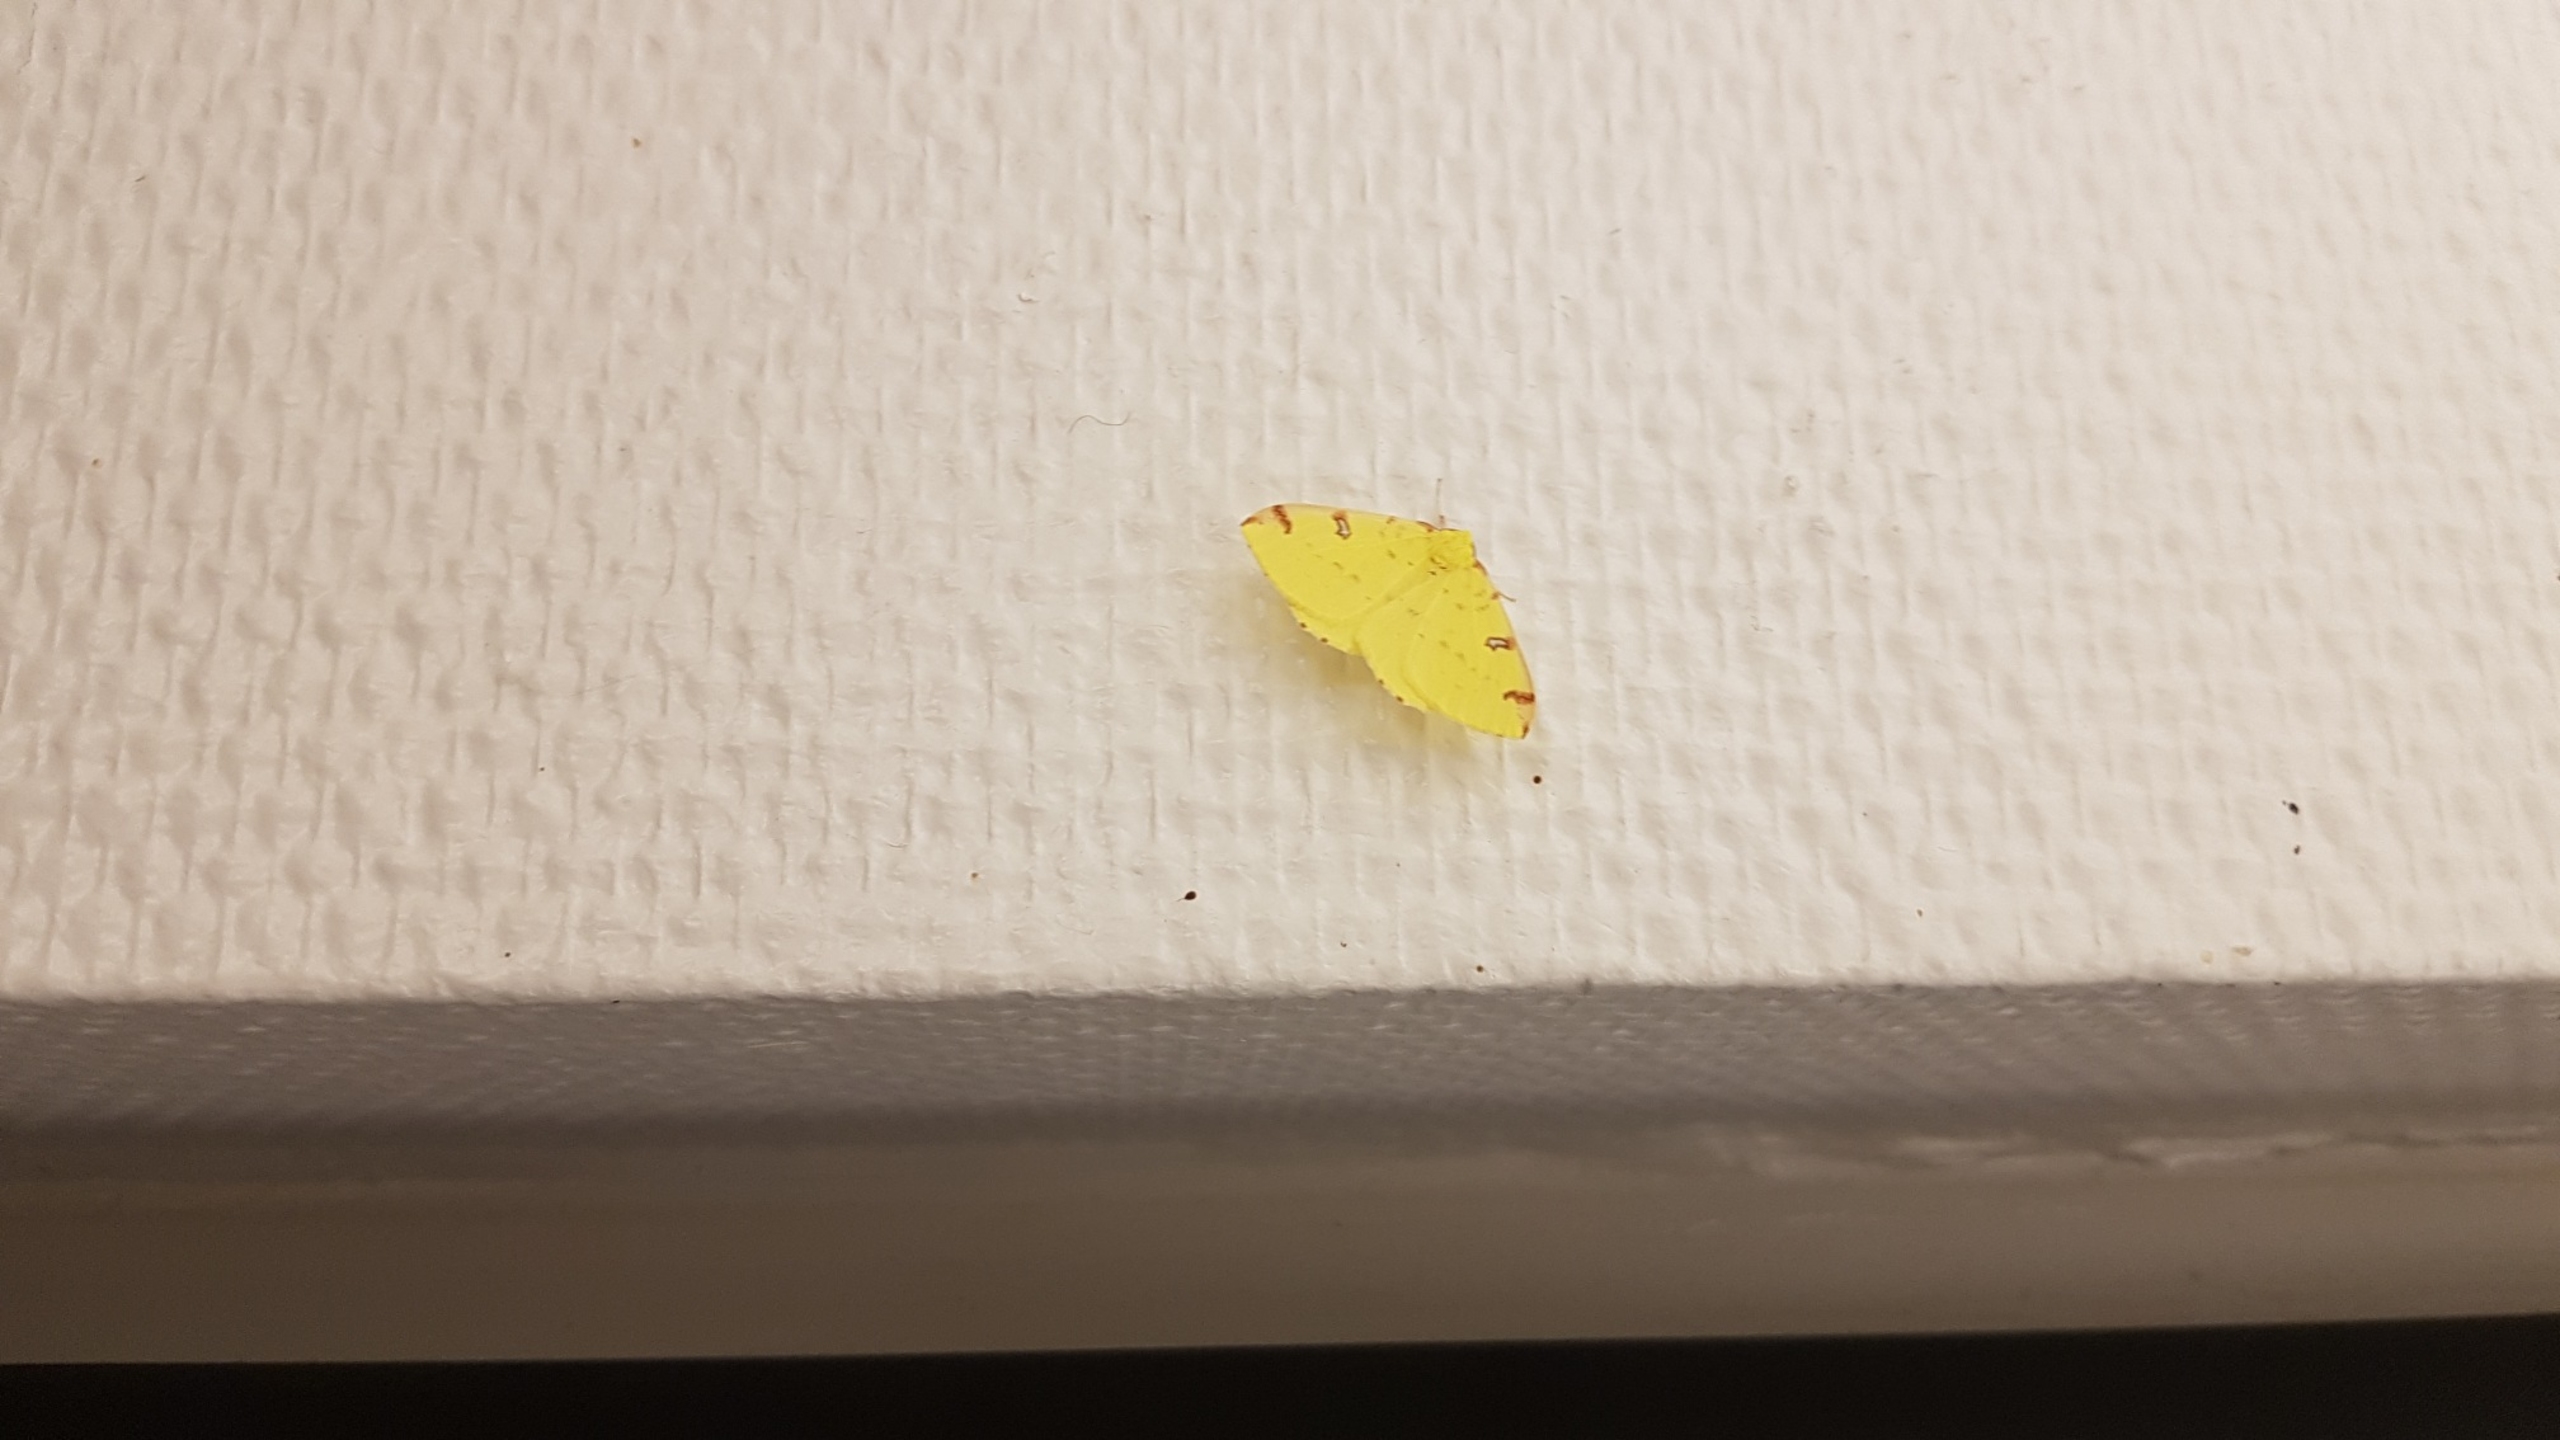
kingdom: Animalia
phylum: Arthropoda
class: Insecta
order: Lepidoptera
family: Geometridae
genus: Opisthograptis
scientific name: Opisthograptis luteolata
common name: Citronmåler
